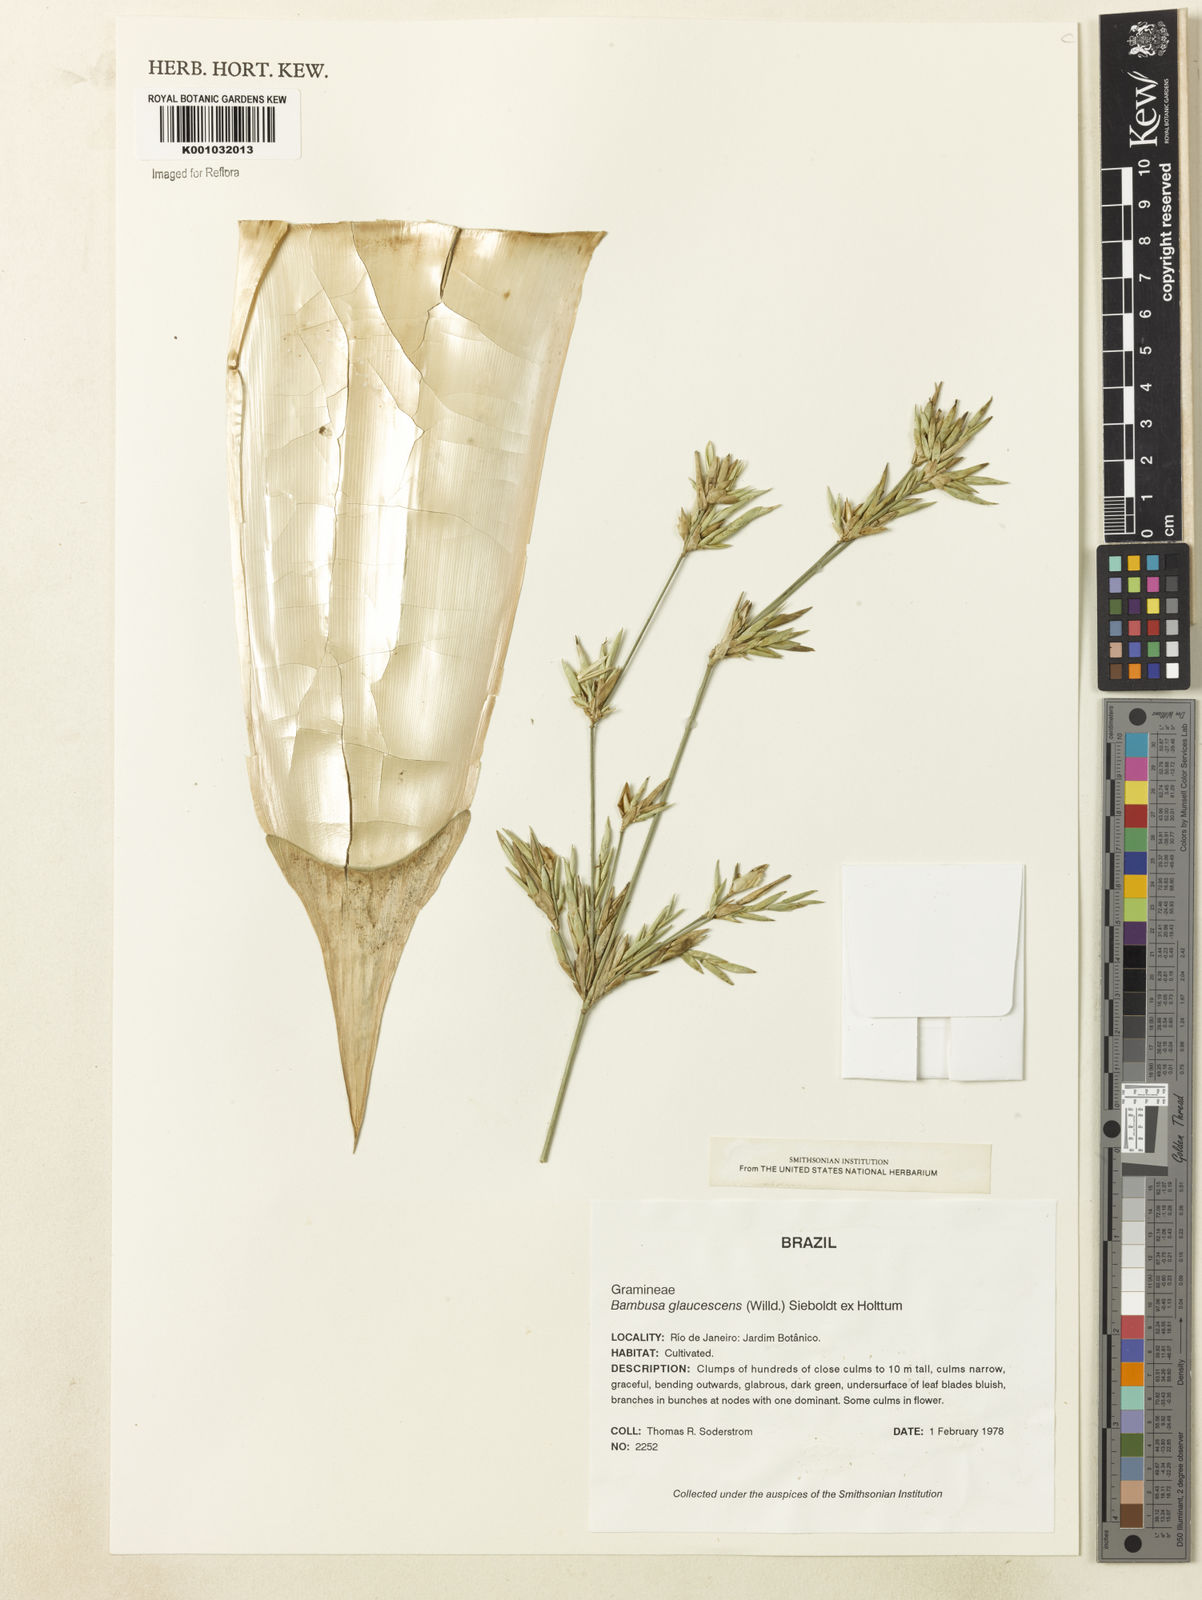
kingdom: Plantae
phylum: Tracheophyta
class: Liliopsida
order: Poales
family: Poaceae
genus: Bambusa
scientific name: Bambusa multiplex
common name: Hedge bamboo
